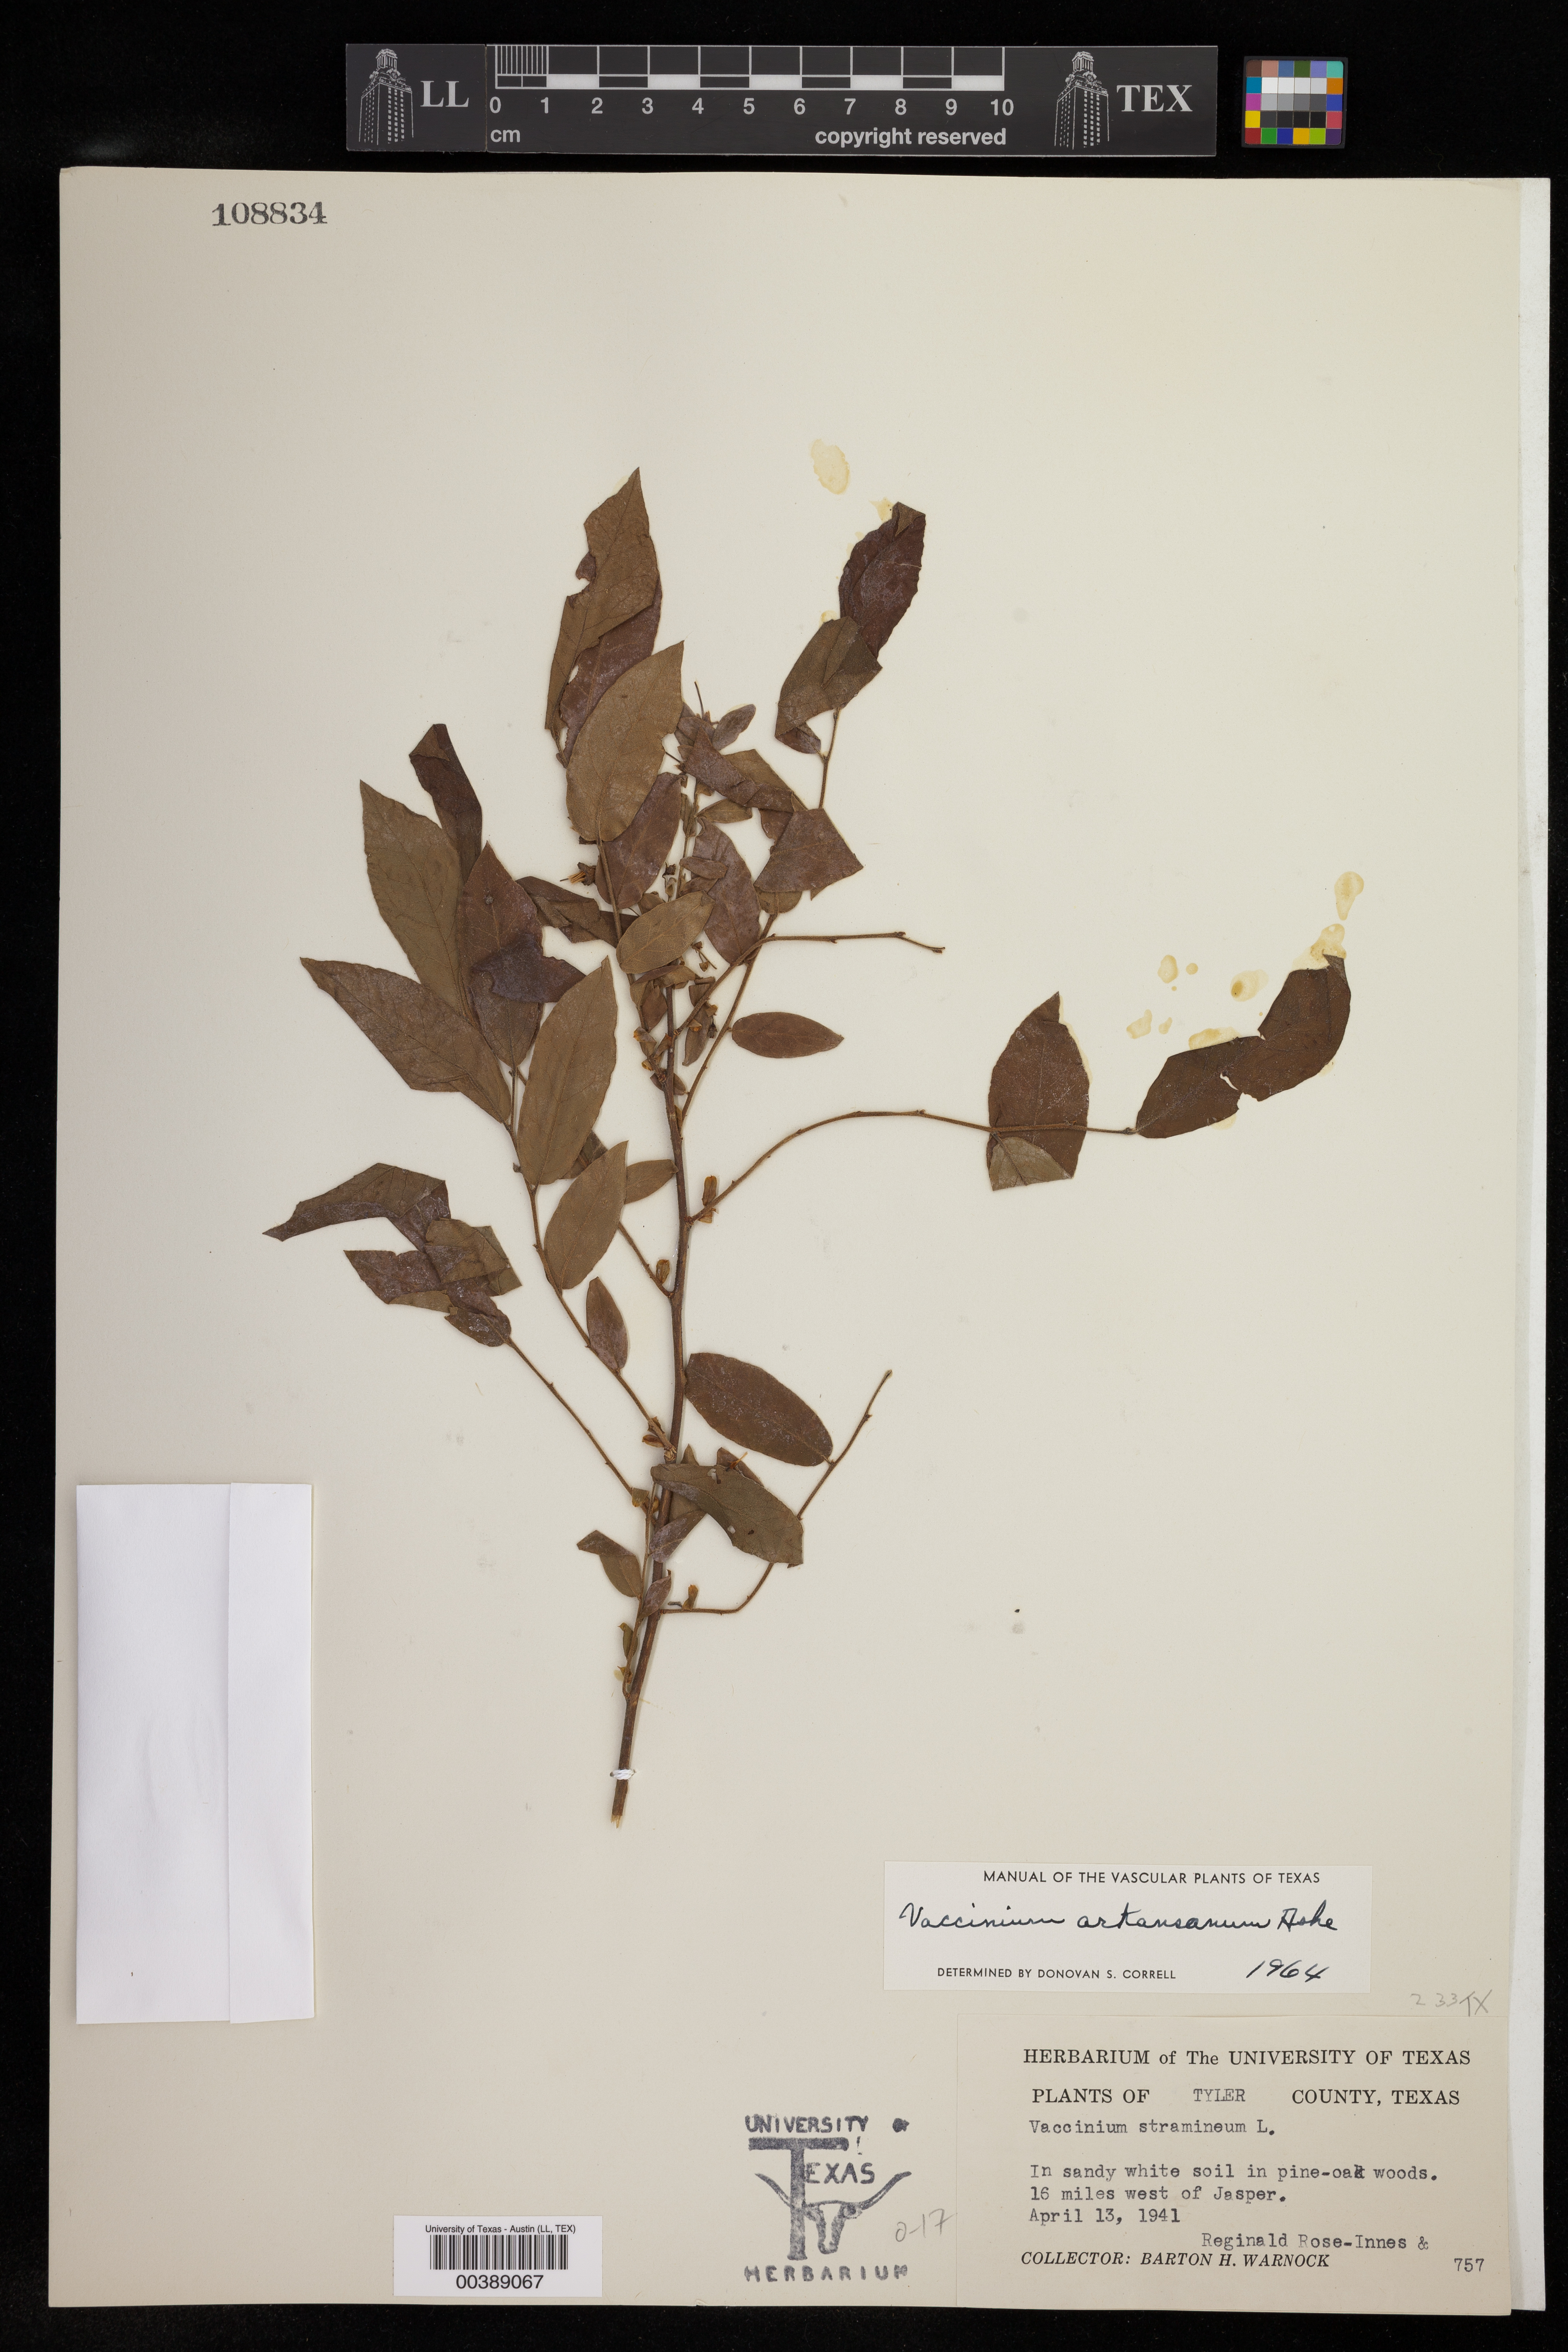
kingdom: Plantae
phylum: Tracheophyta
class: Magnoliopsida
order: Ericales
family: Ericaceae
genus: Vaccinium
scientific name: Vaccinium corymbosum
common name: Blueberry
